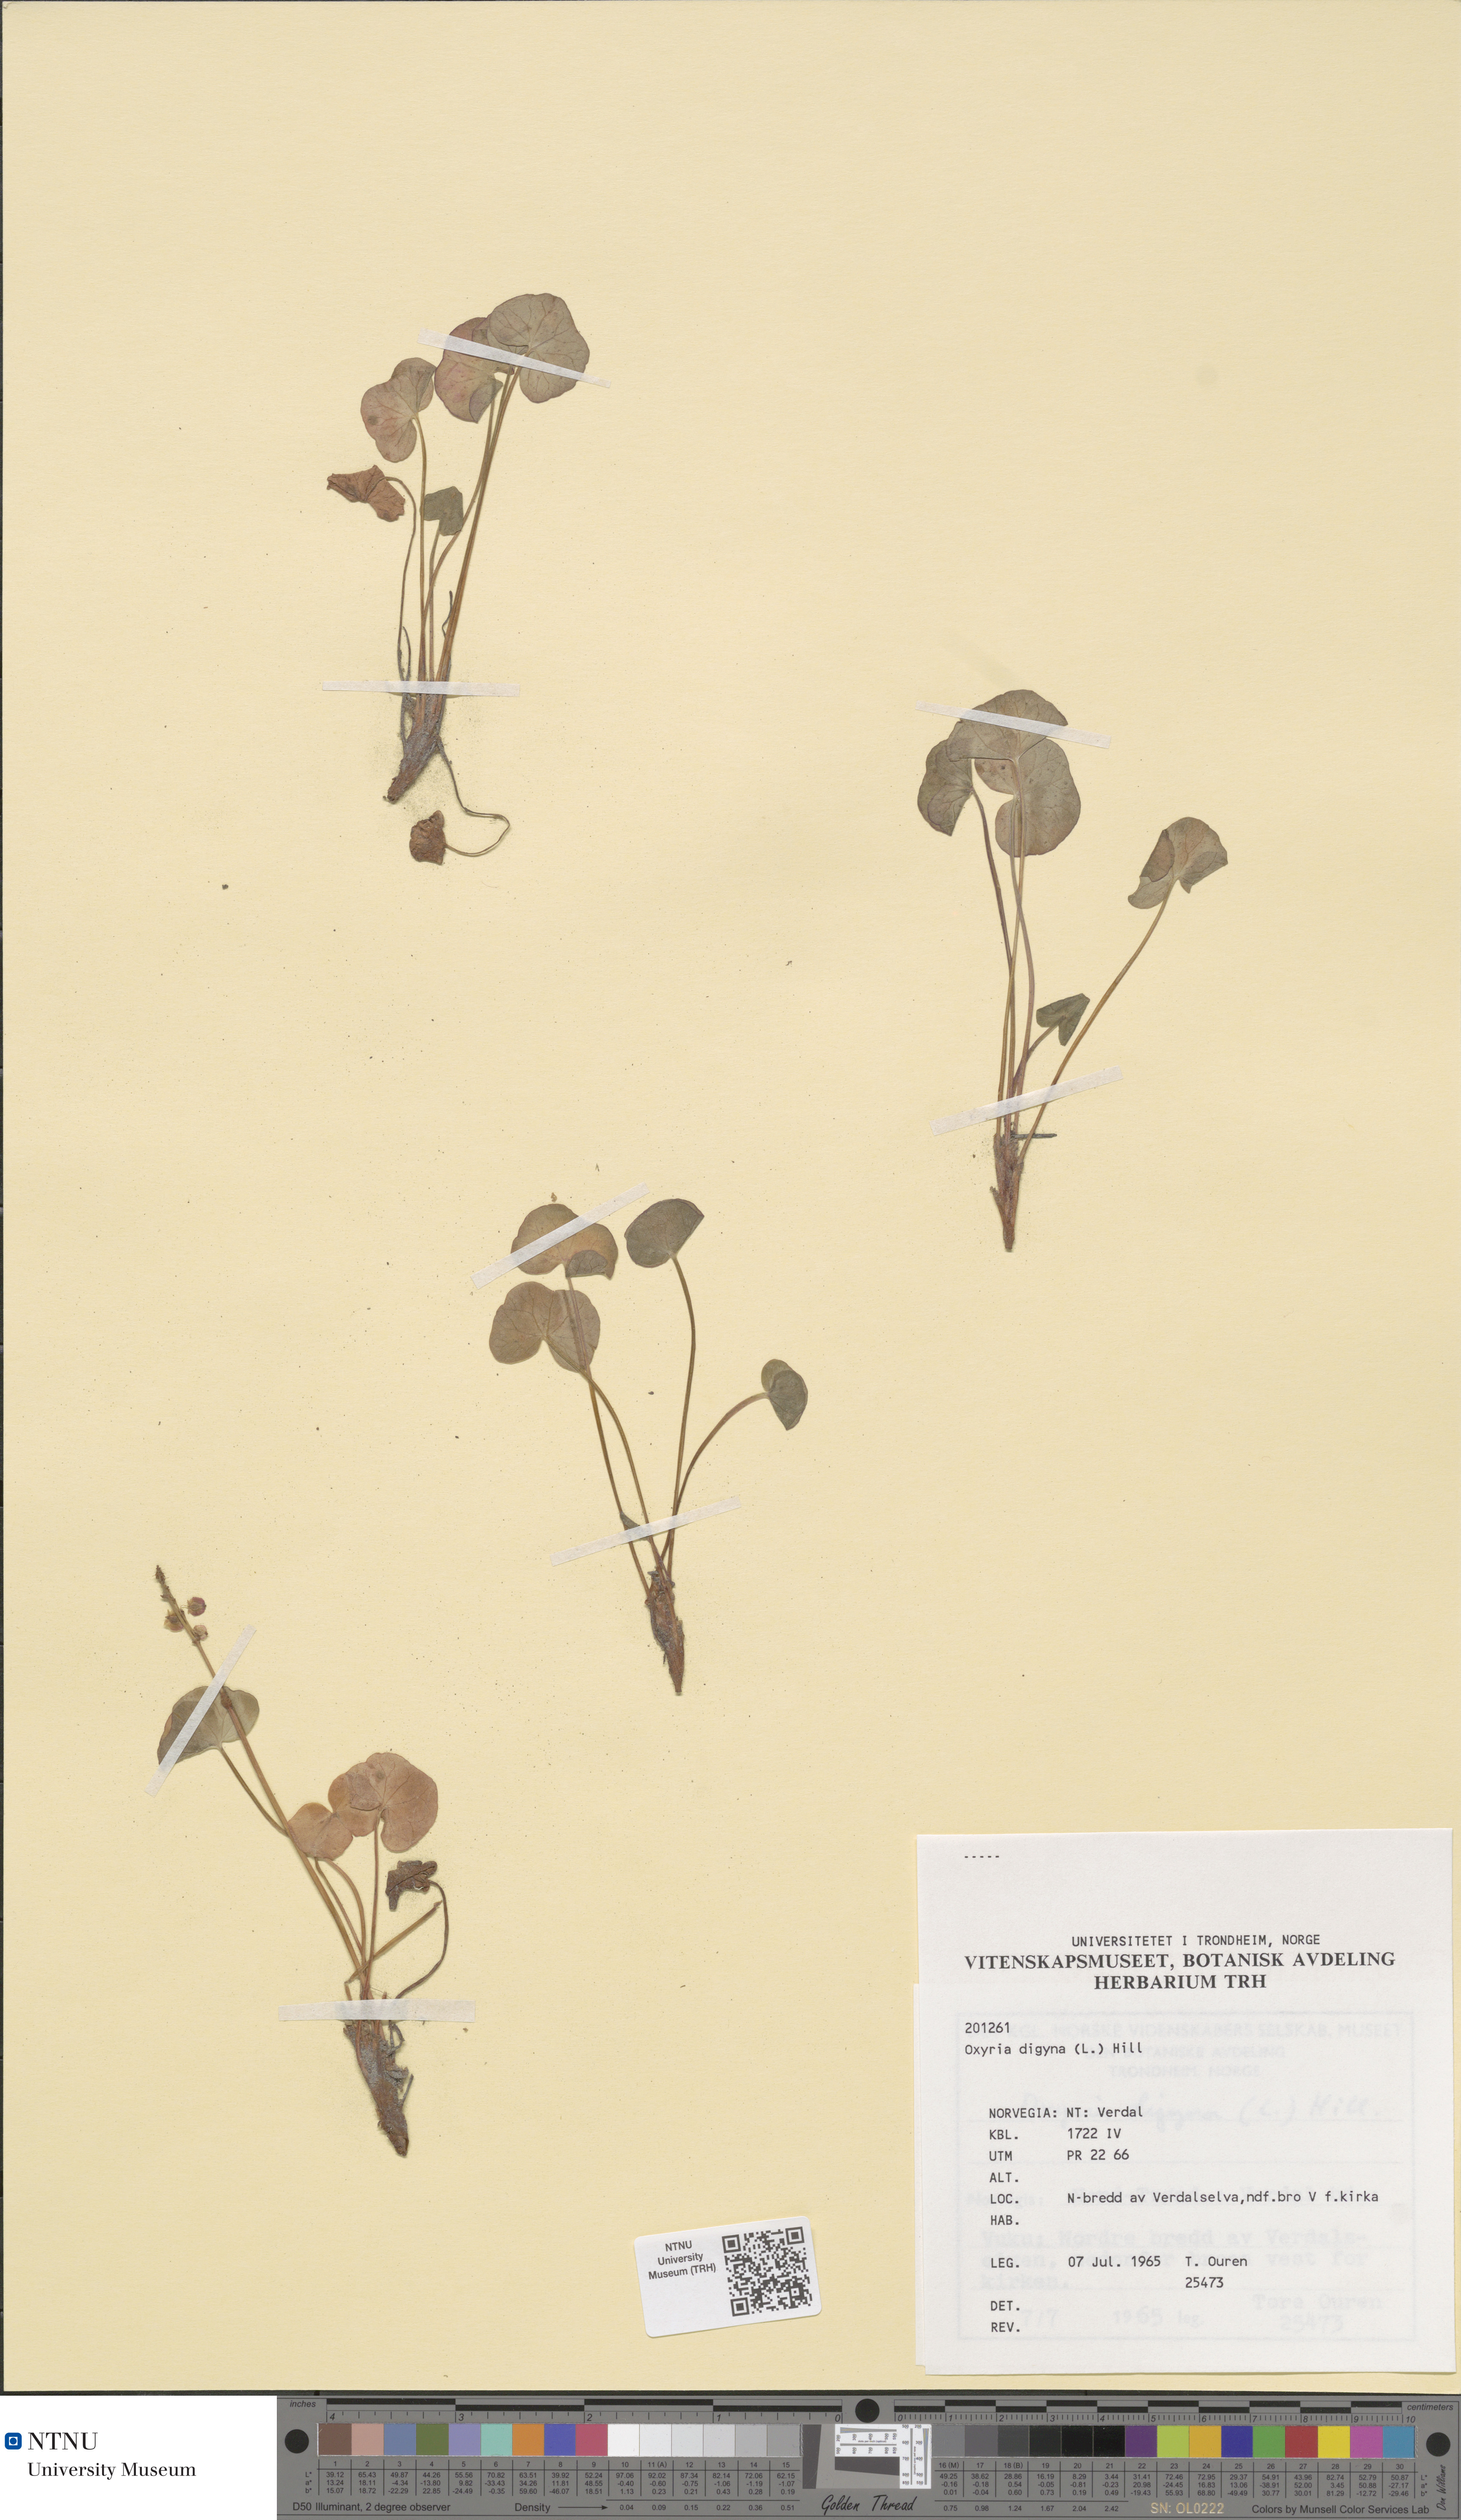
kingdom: Plantae
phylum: Tracheophyta
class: Magnoliopsida
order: Caryophyllales
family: Polygonaceae
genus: Oxyria
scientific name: Oxyria digyna
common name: Alpine mountain-sorrel
